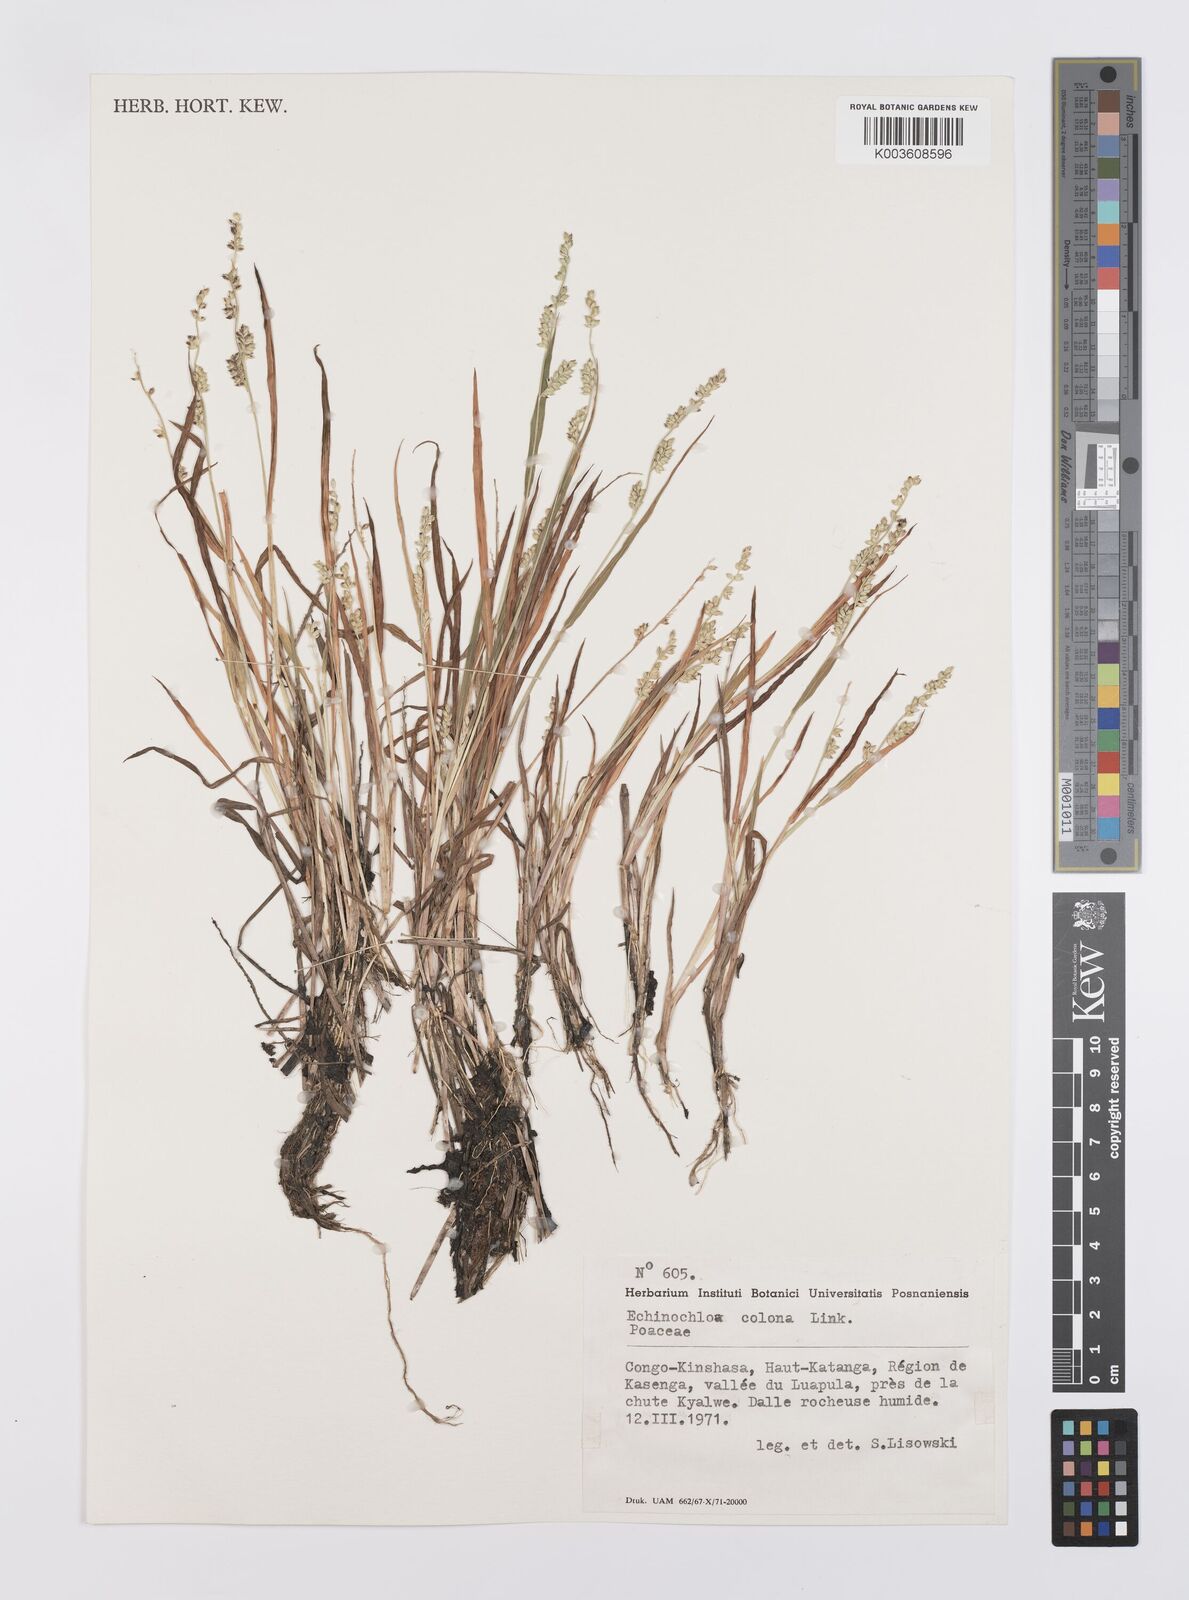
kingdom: Plantae
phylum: Tracheophyta
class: Liliopsida
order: Poales
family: Poaceae
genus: Echinochloa
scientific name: Echinochloa colonum
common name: Jungle rice
